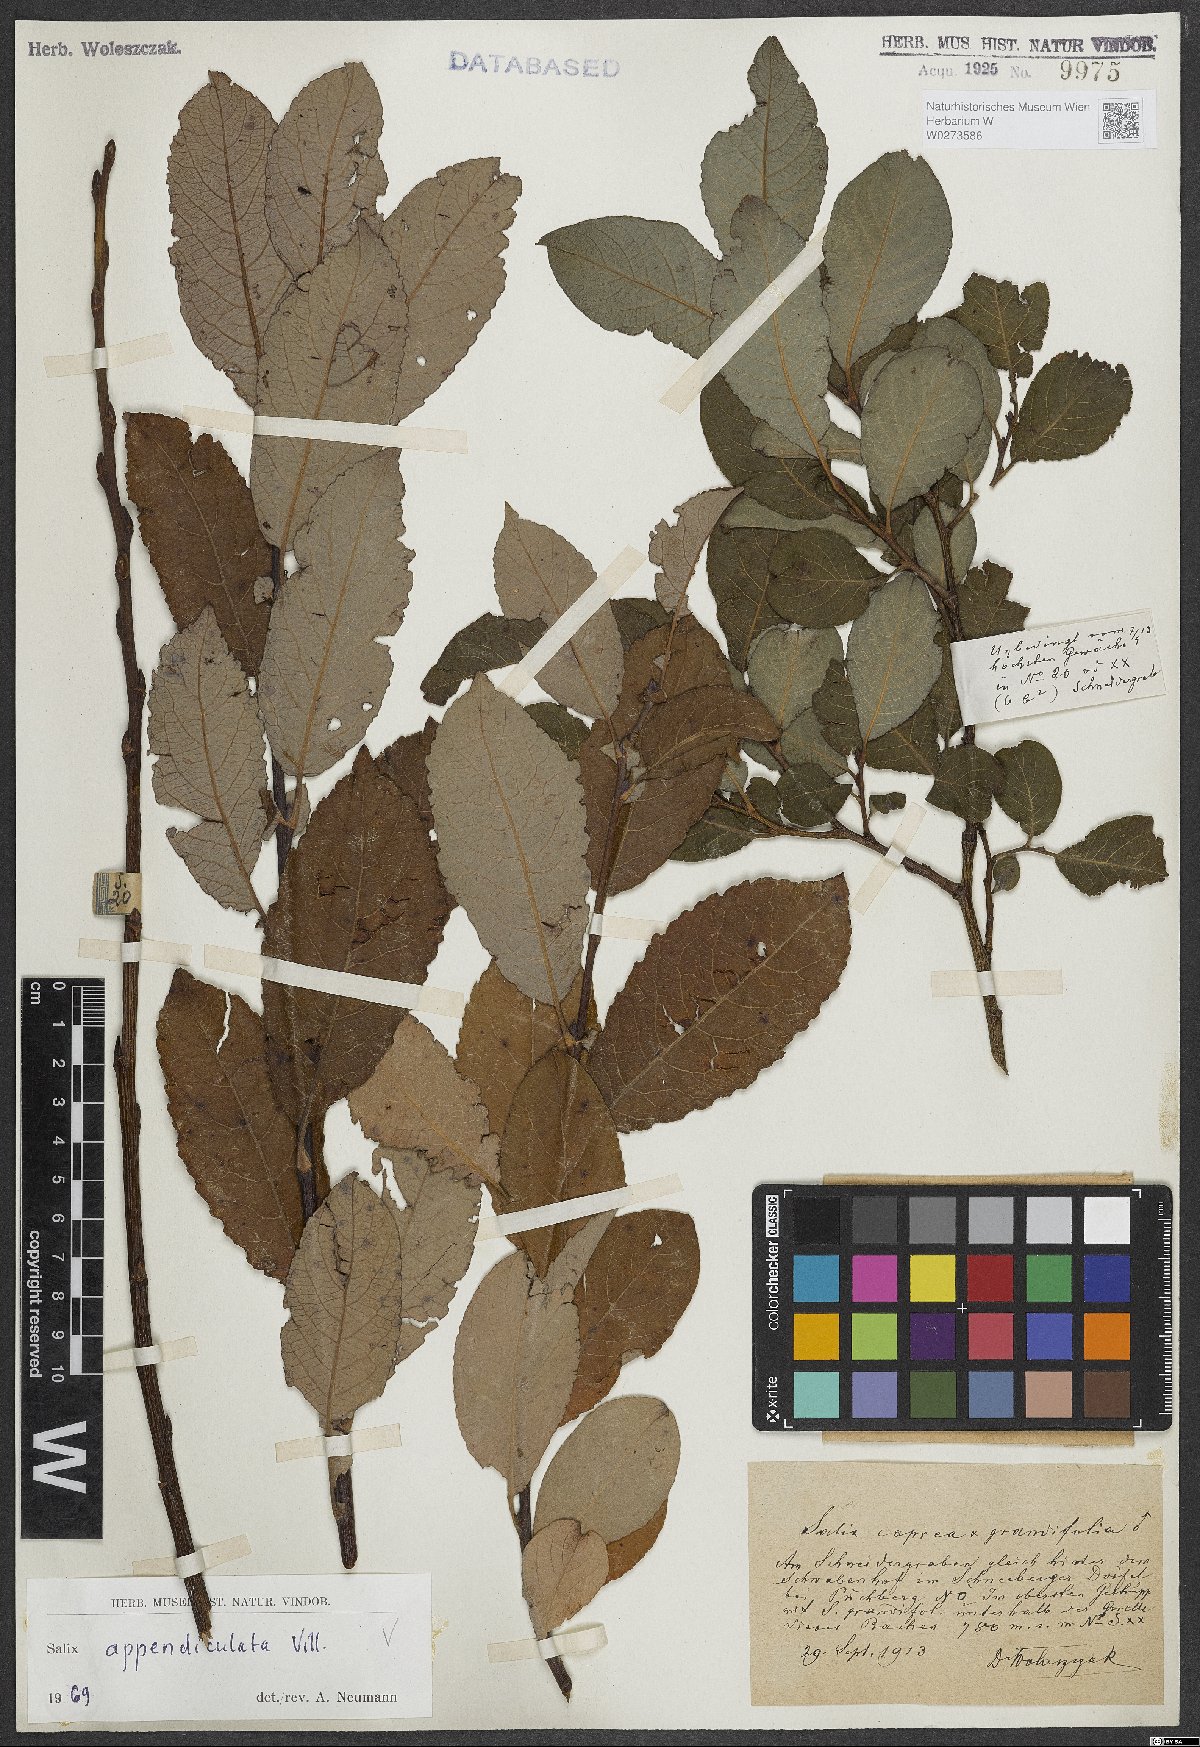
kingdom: Plantae
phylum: Tracheophyta
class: Magnoliopsida
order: Malpighiales
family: Salicaceae
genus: Salix
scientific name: Salix appendiculata
